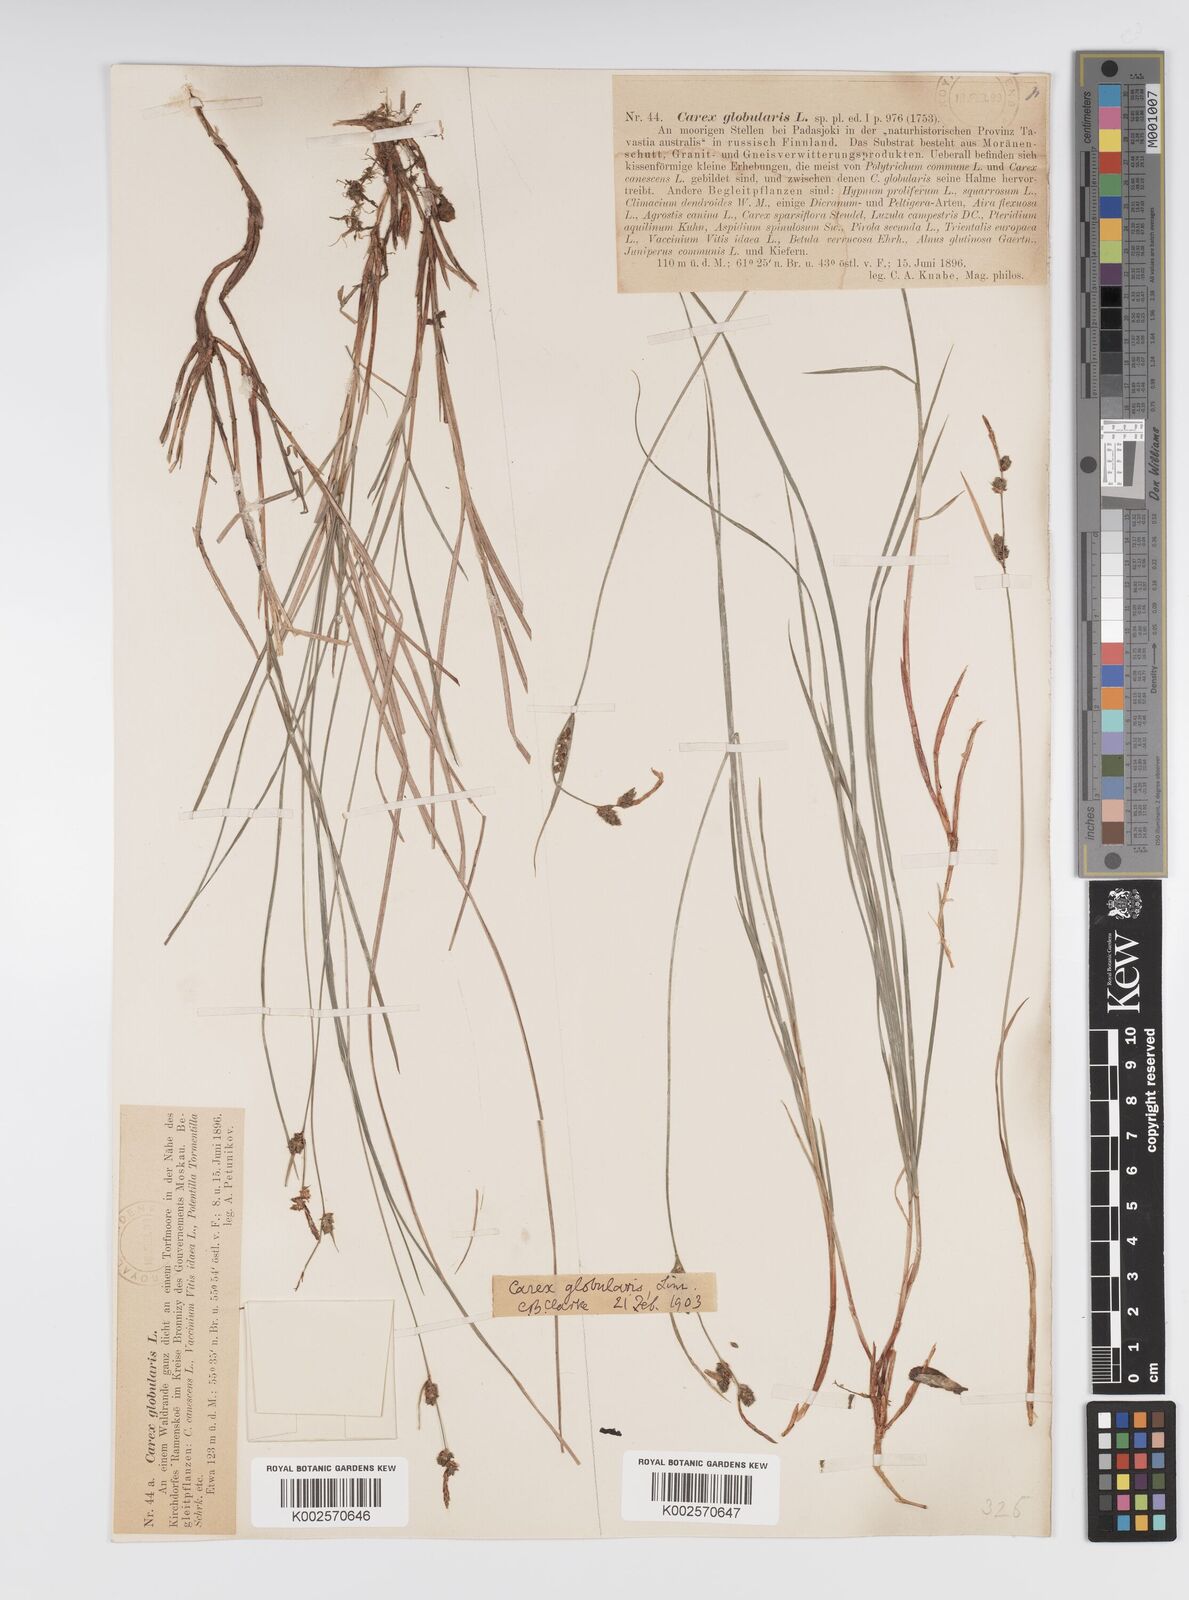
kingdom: Plantae
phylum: Tracheophyta
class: Liliopsida
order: Poales
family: Cyperaceae
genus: Carex
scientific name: Carex globularis
